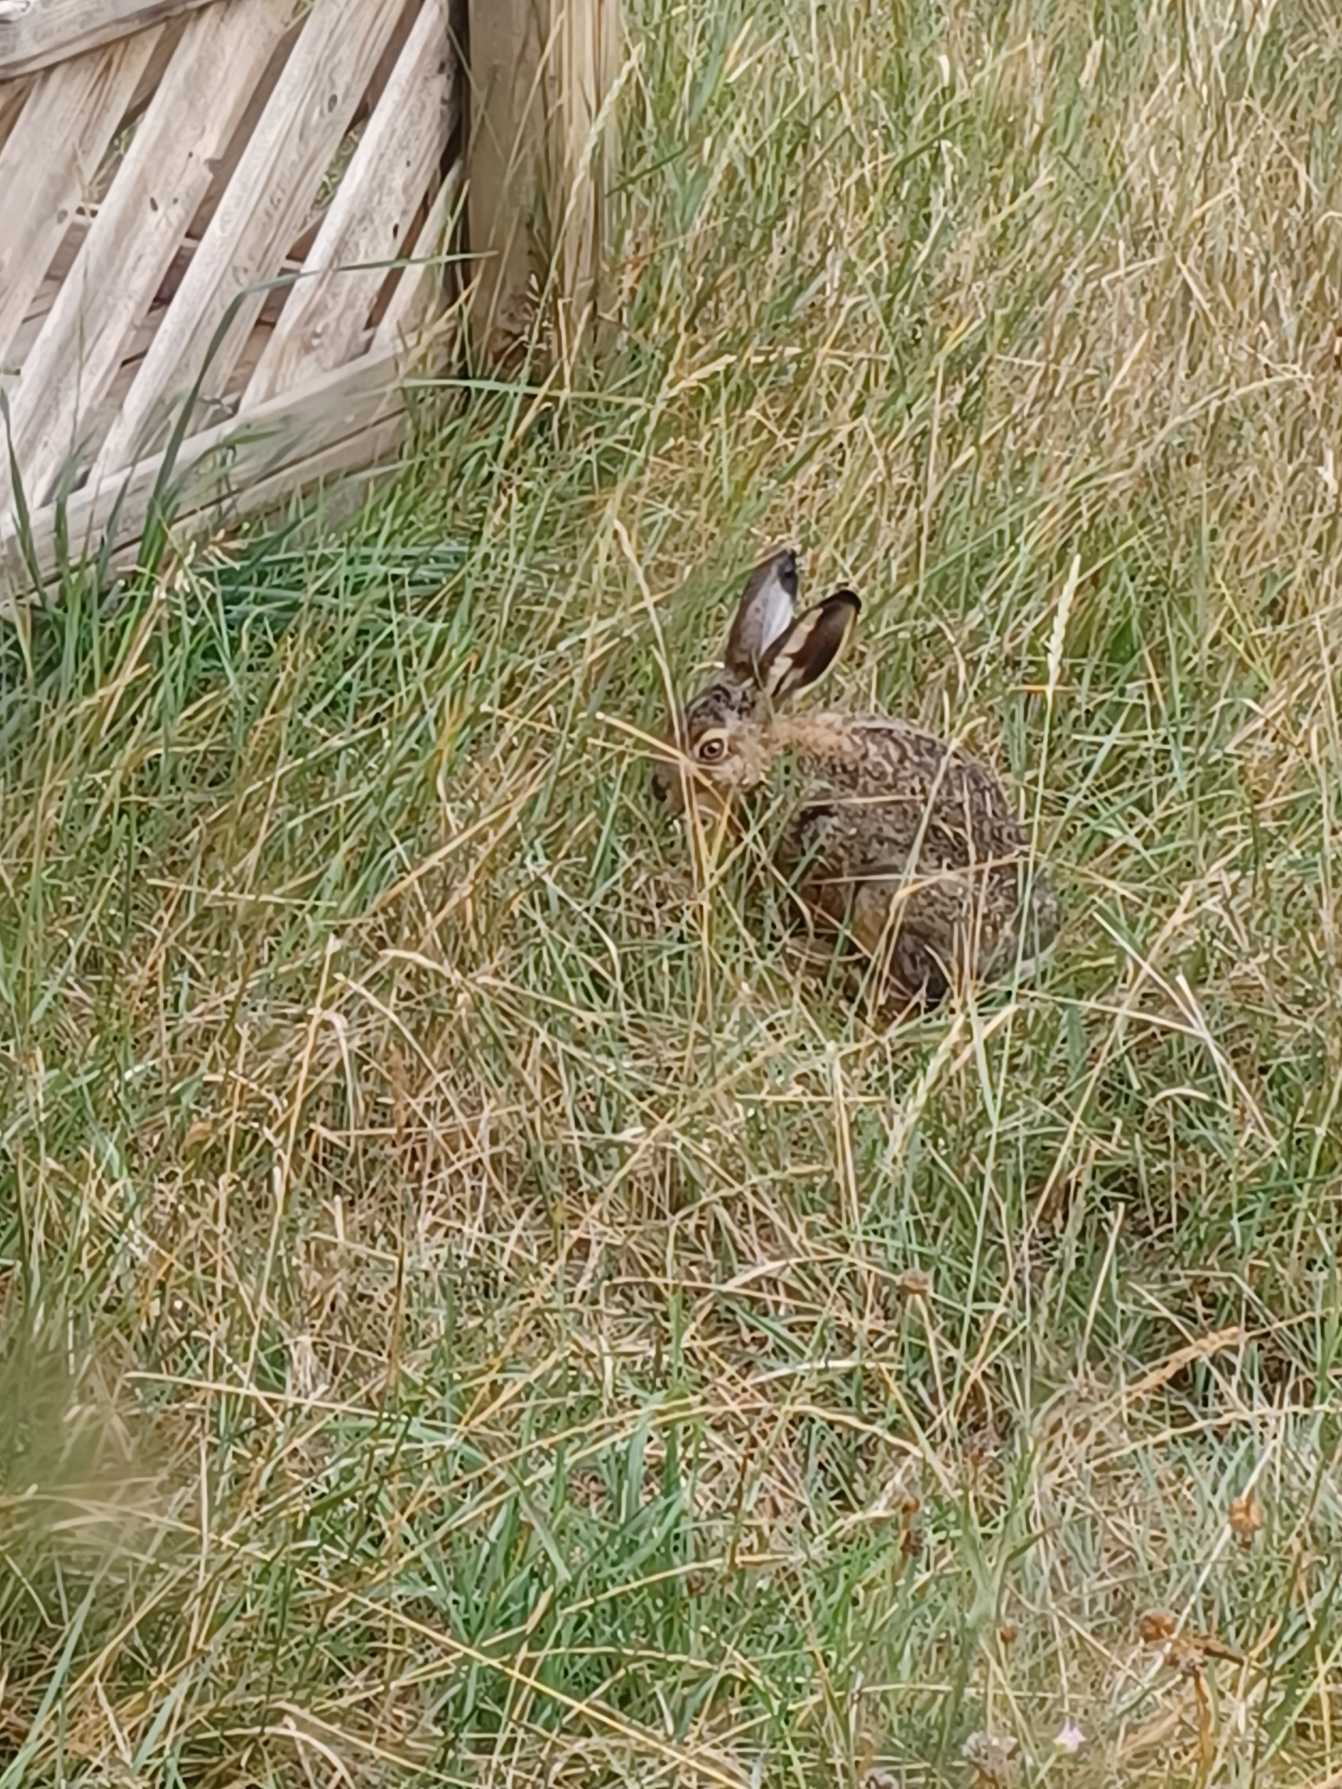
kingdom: Animalia
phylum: Chordata
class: Mammalia
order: Lagomorpha
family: Leporidae
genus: Lepus
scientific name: Lepus europaeus
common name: Hare
